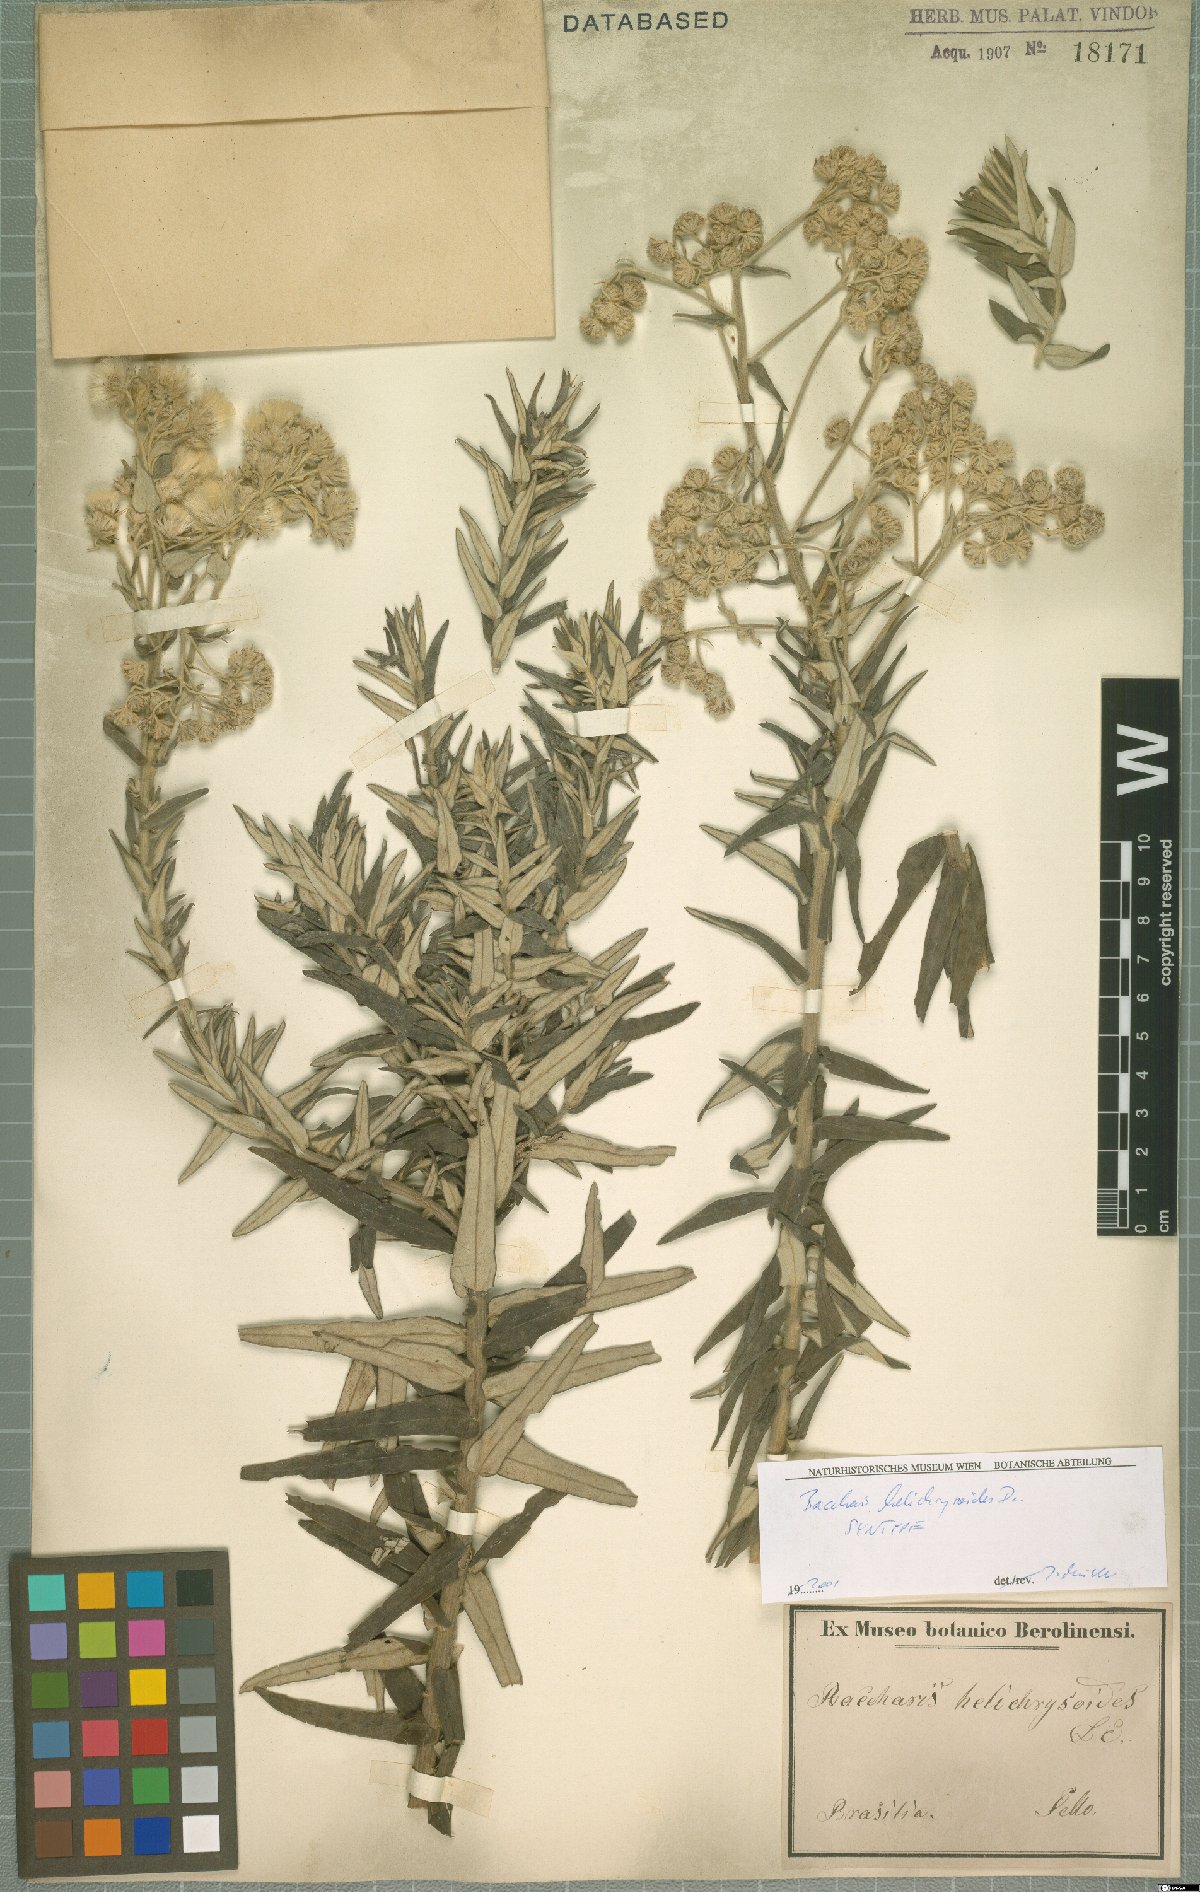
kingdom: Plantae
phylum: Tracheophyta
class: Magnoliopsida
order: Asterales
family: Asteraceae
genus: Baccharis
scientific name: Baccharis helichrysoides
